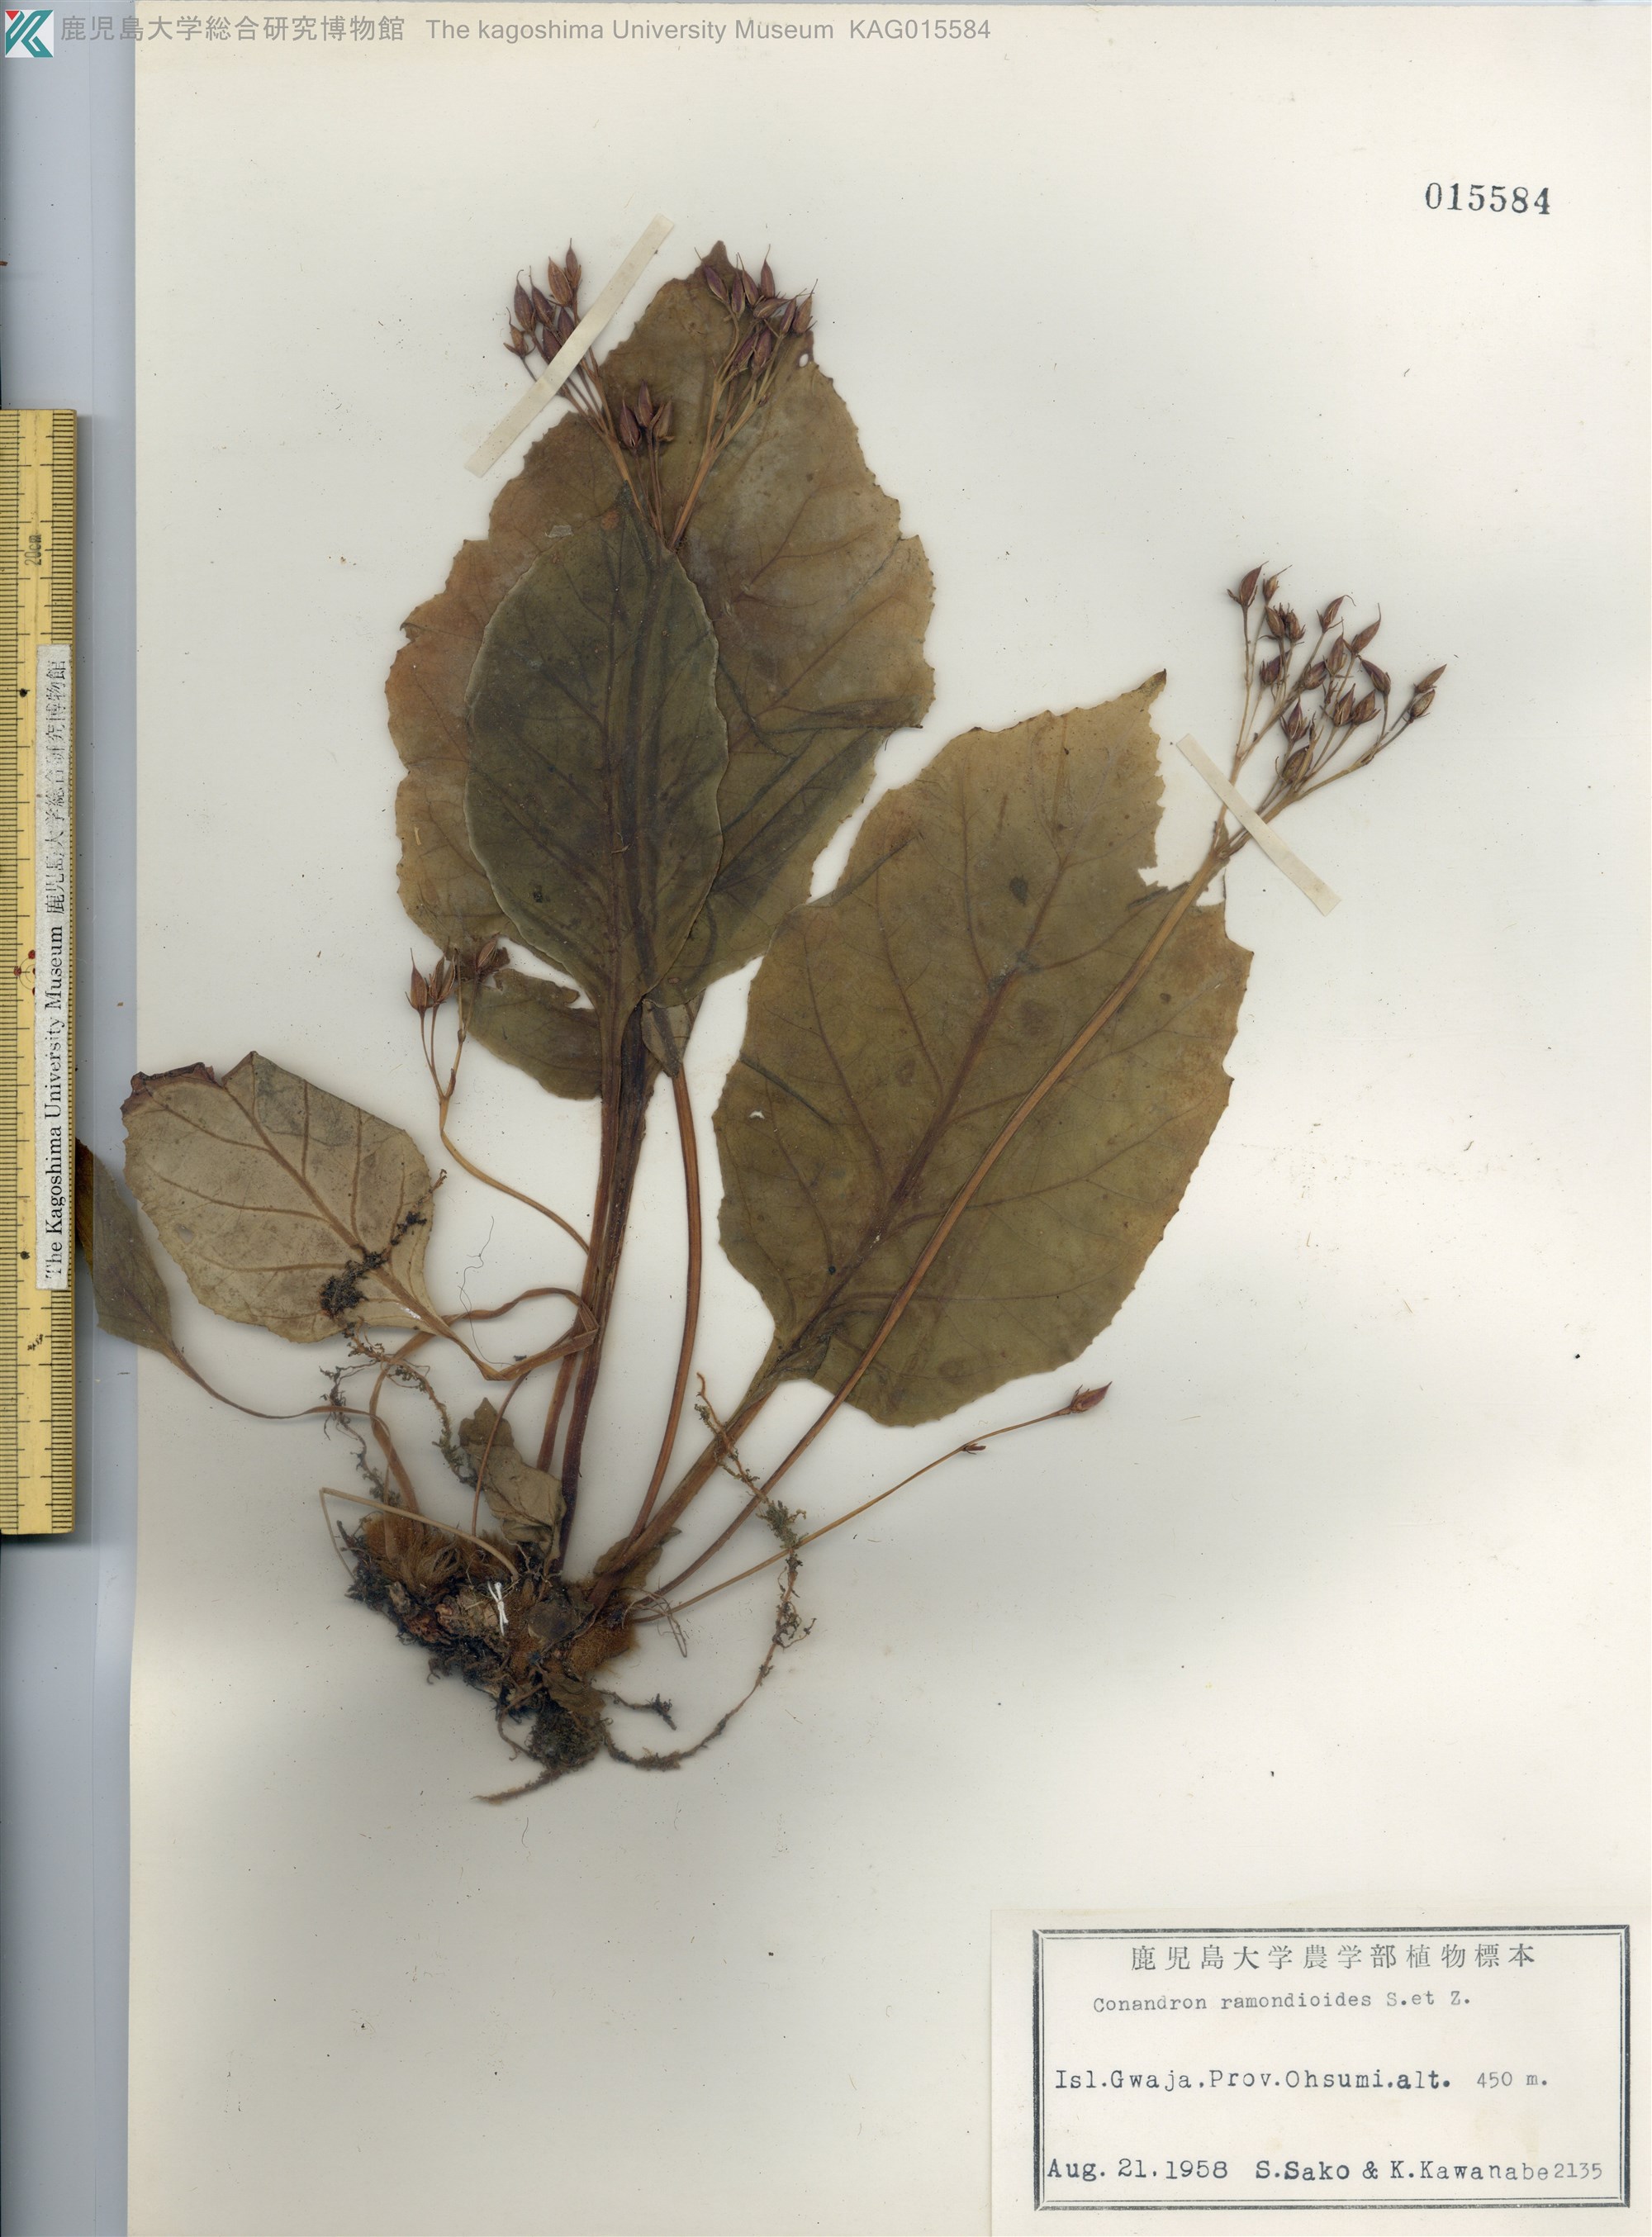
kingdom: Plantae
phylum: Tracheophyta
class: Magnoliopsida
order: Lamiales
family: Gesneriaceae
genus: Conandron
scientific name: Conandron ramondioides
